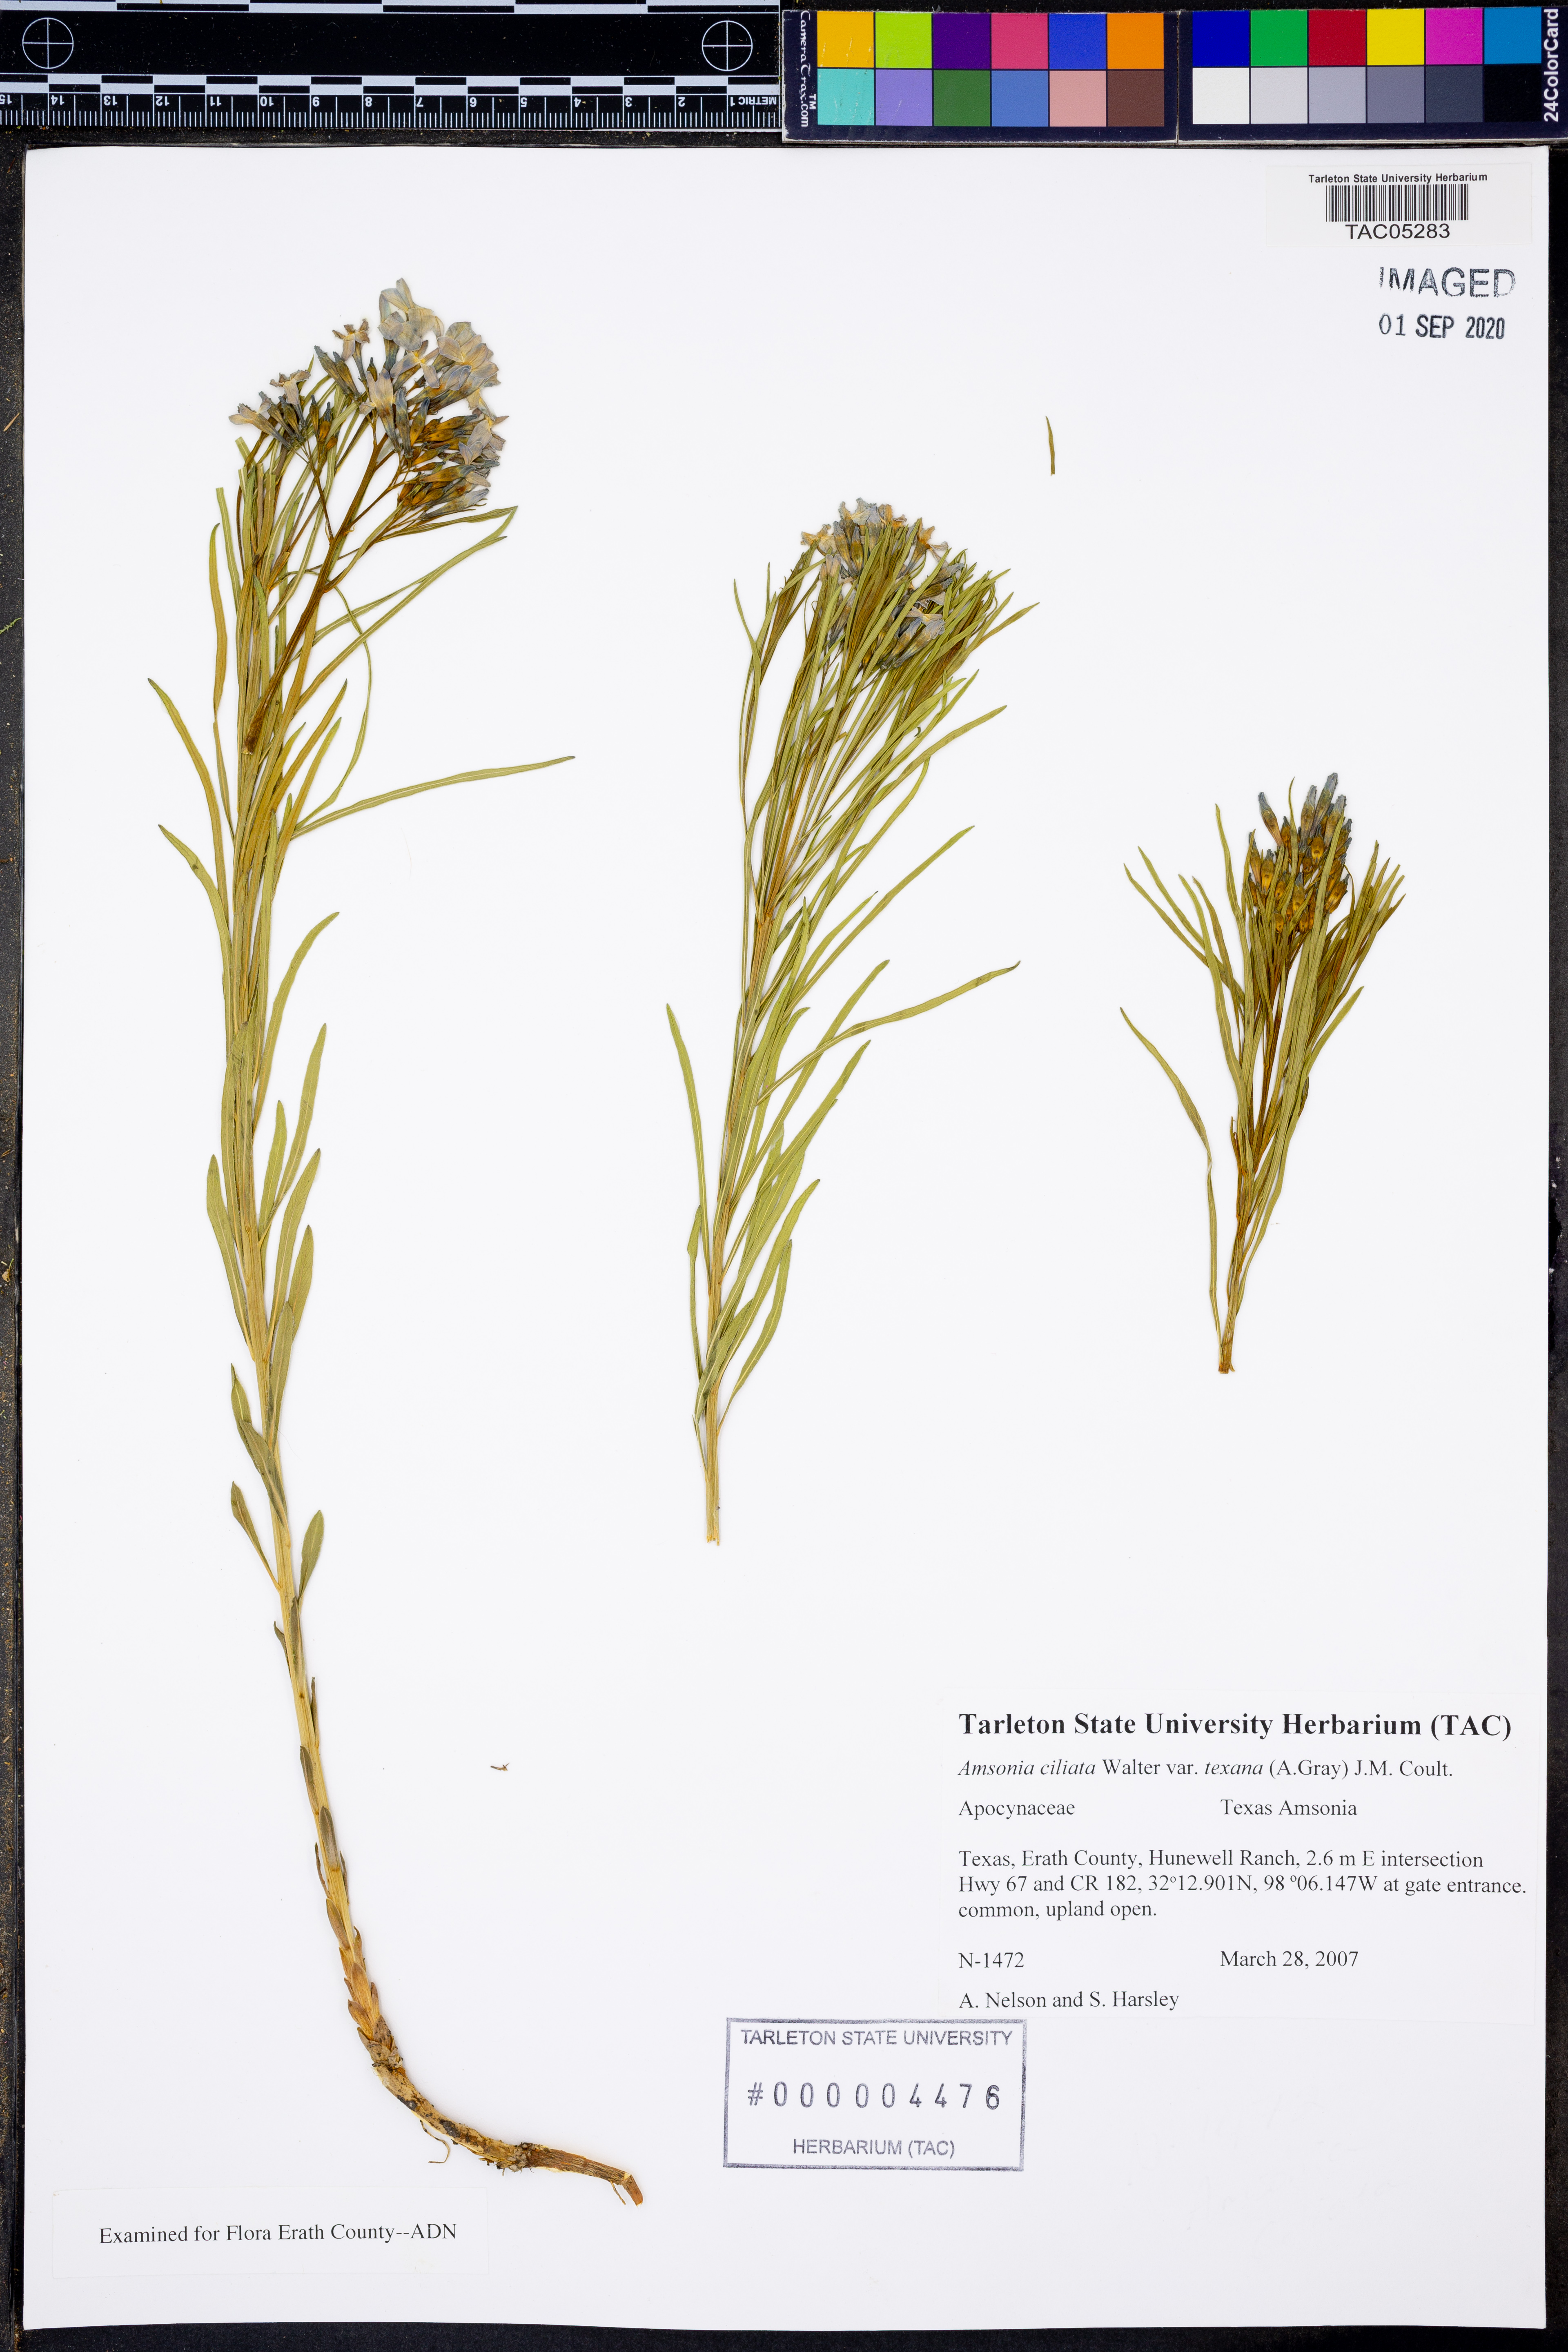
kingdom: Plantae
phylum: Tracheophyta
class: Magnoliopsida
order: Gentianales
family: Apocynaceae
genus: Amsonia
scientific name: Amsonia ciliata
